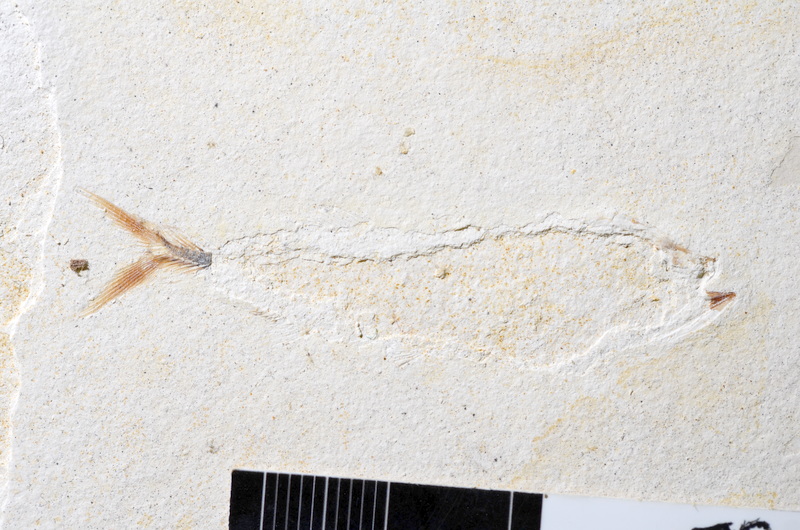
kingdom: Animalia
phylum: Chordata
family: Ascalaboidae
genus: Ebertichthys
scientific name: Ebertichthys ettlingensis
